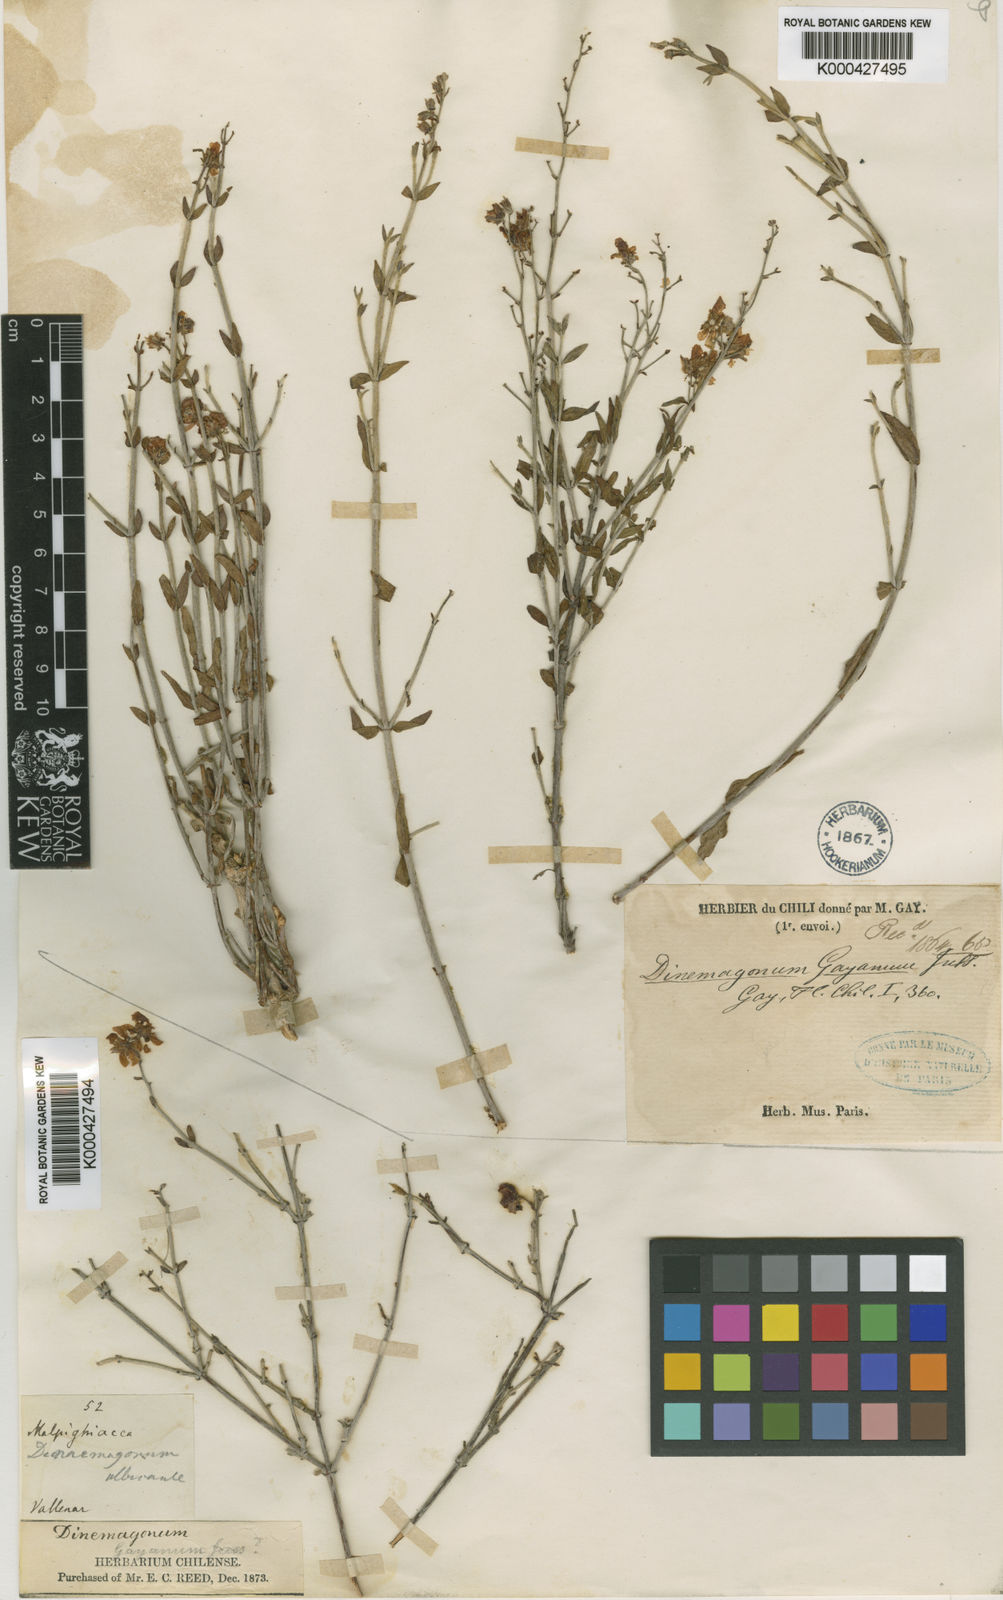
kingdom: Plantae
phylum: Tracheophyta
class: Magnoliopsida
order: Malpighiales
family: Malpighiaceae
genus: Dinemagonum
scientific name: Dinemagonum gayanum
